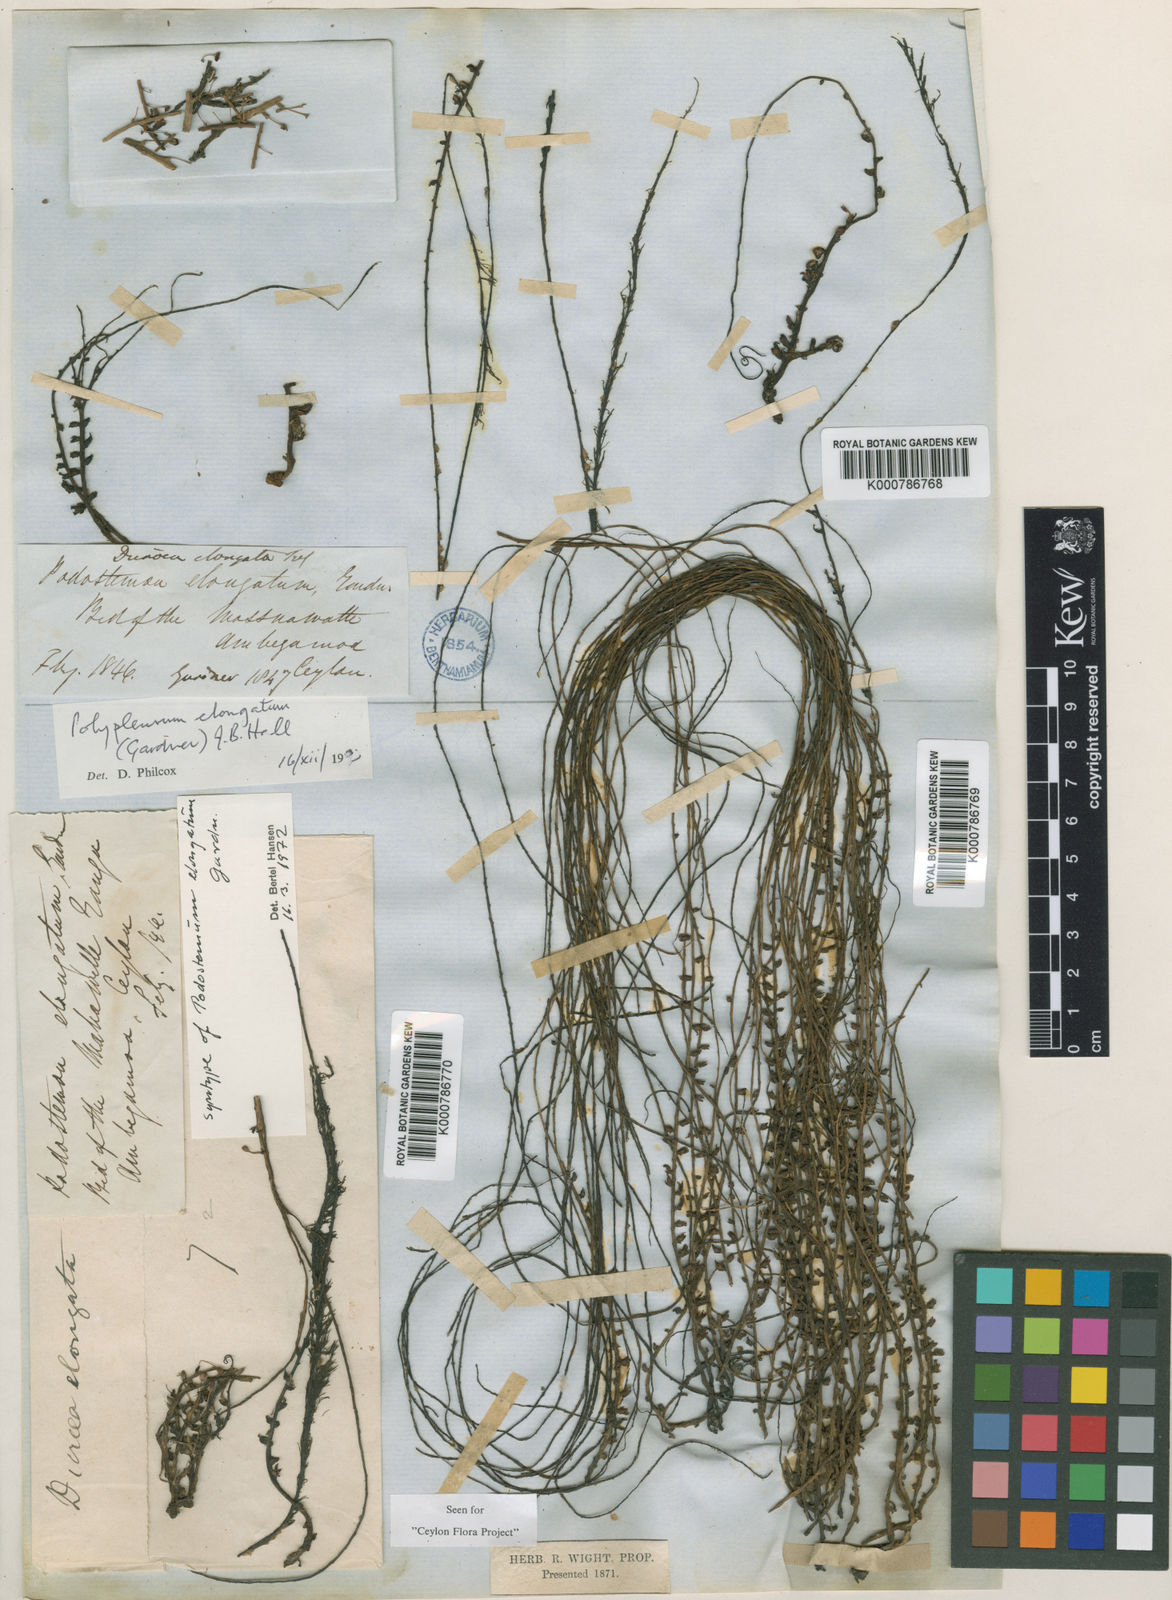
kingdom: Plantae
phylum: Tracheophyta
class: Magnoliopsida
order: Malpighiales
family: Podostemaceae
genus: Polypleurum
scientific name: Polypleurum elongatum
